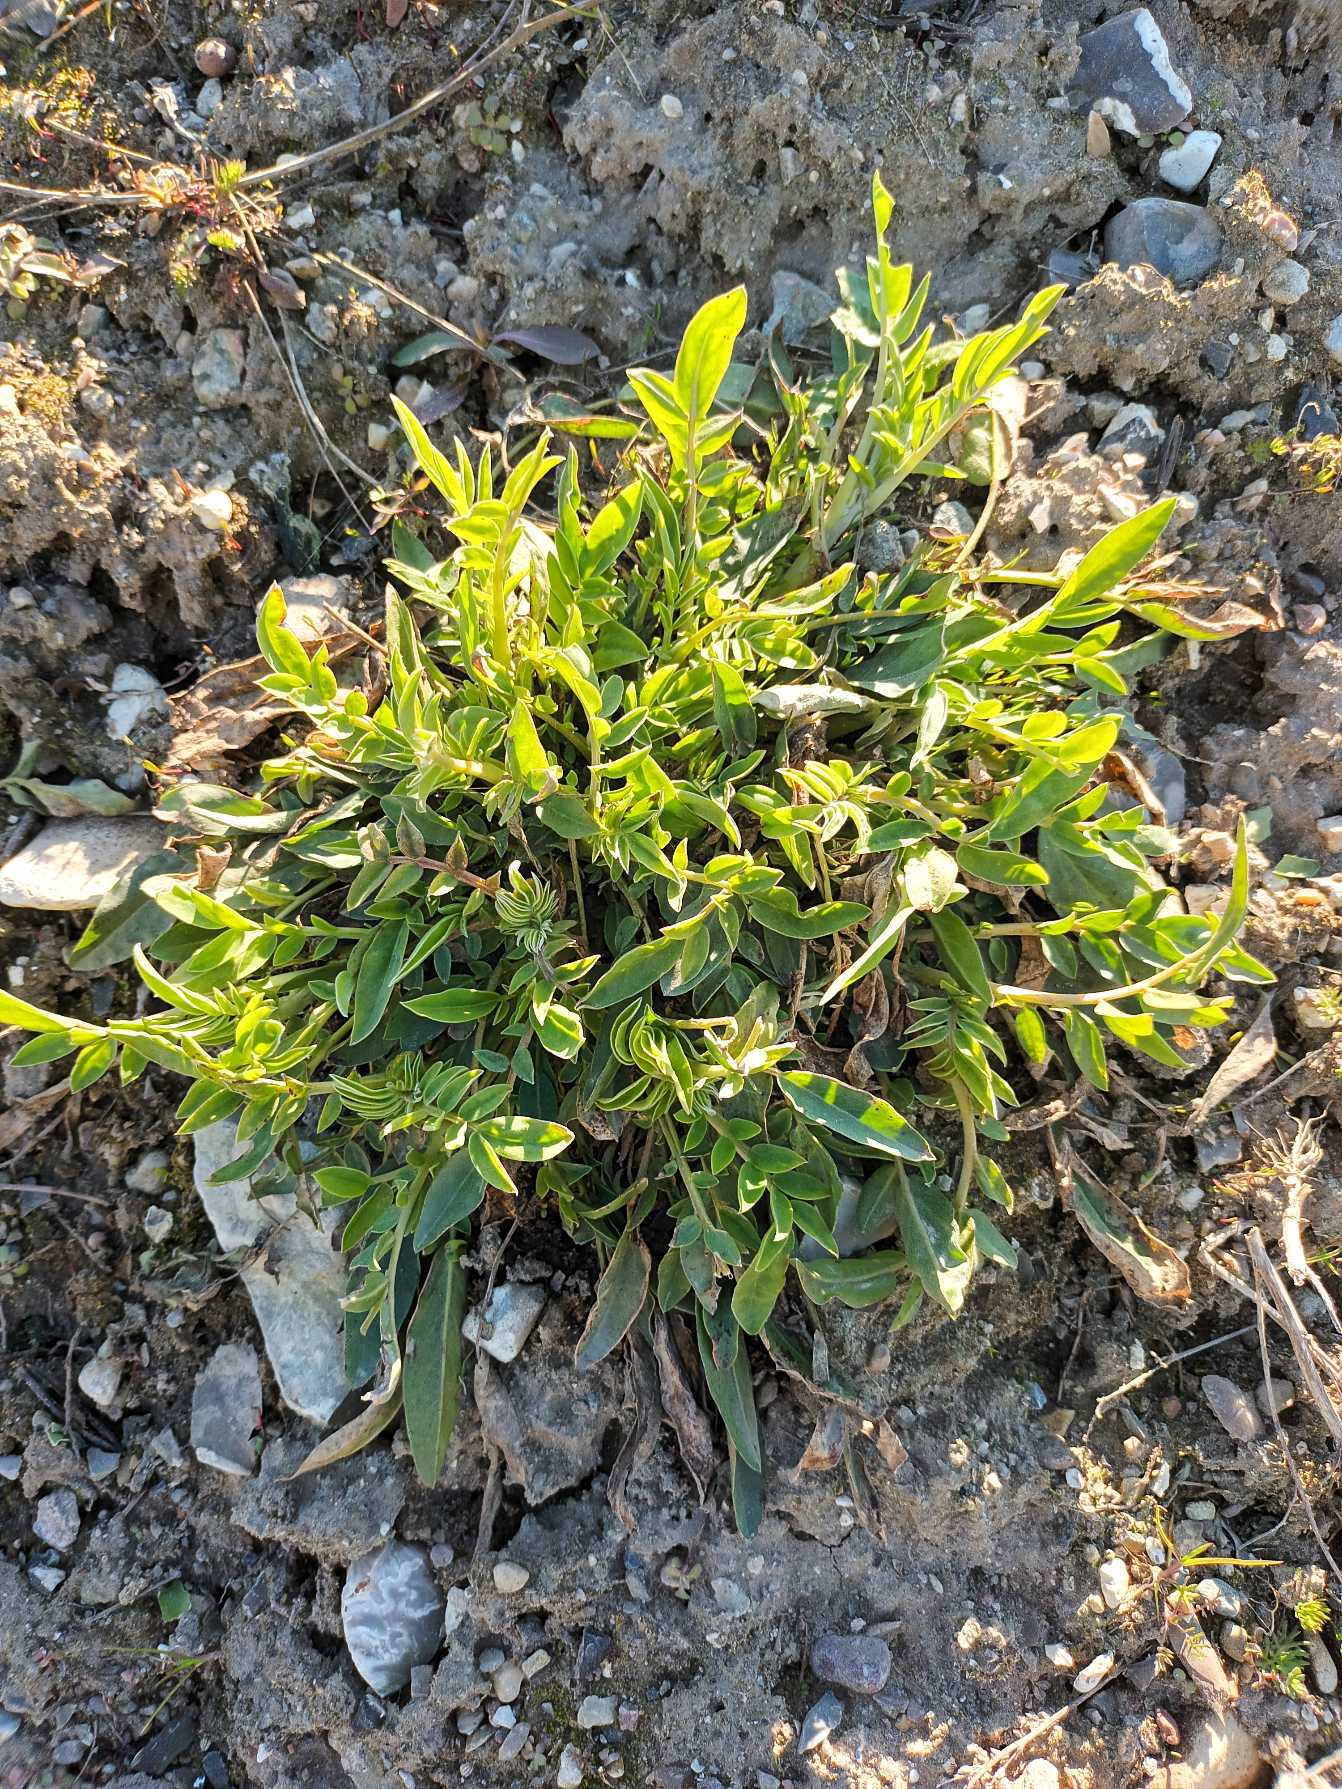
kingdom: Plantae
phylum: Tracheophyta
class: Magnoliopsida
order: Fabales
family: Fabaceae
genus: Anthyllis
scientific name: Anthyllis vulneraria
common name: Rundbælg
